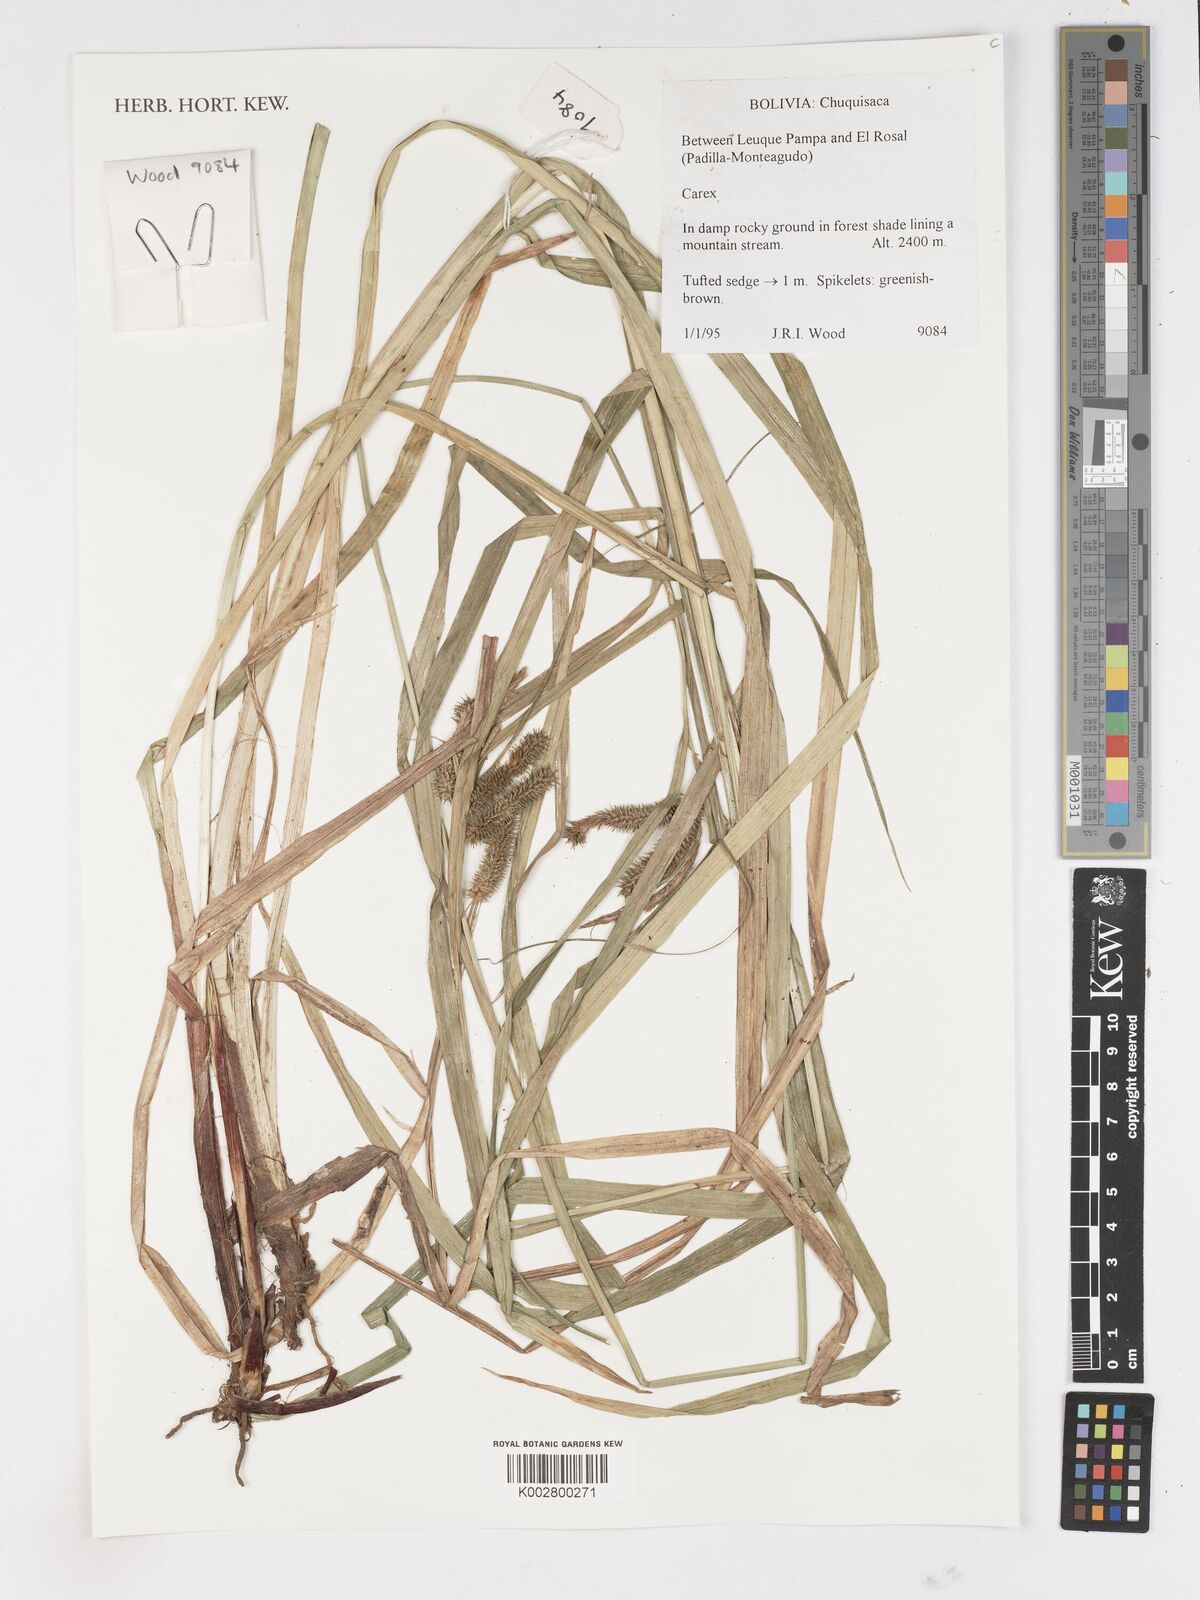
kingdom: Plantae
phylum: Tracheophyta
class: Liliopsida
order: Poales
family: Cyperaceae
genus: Carex
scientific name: Carex
